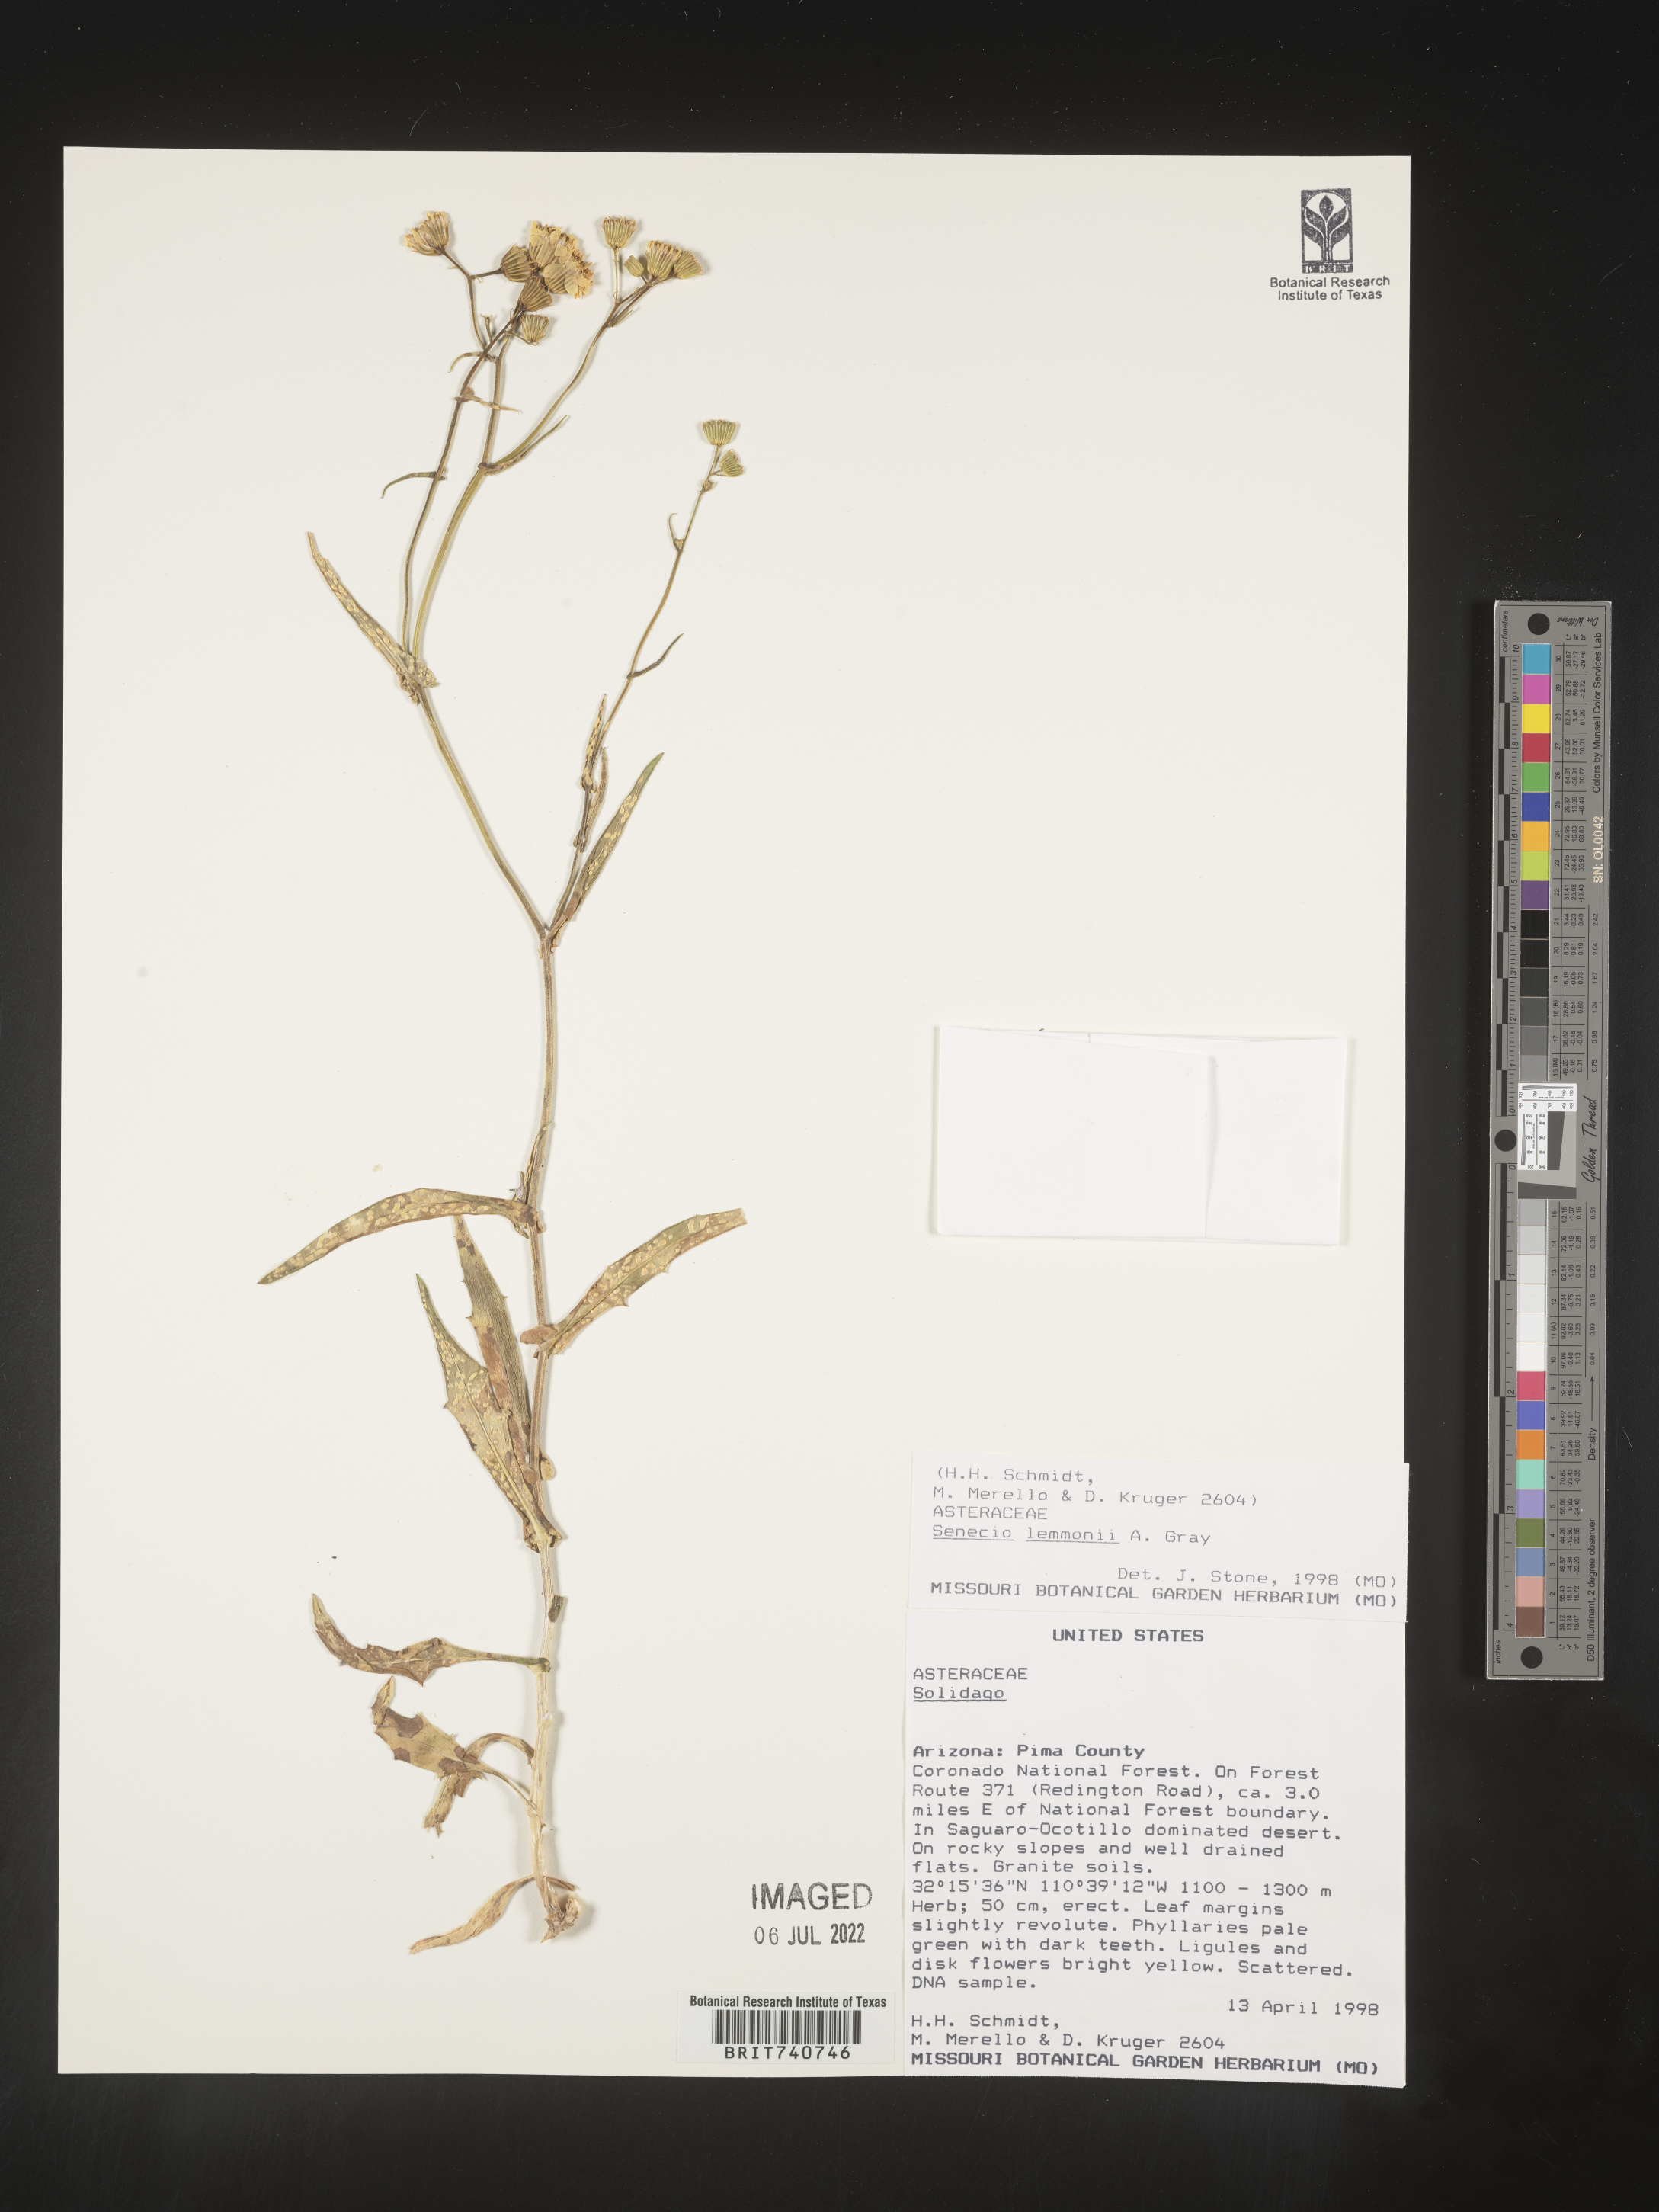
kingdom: Plantae
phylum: Tracheophyta
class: Magnoliopsida
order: Asterales
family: Asteraceae
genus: Senecio
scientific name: Senecio lemmonii
